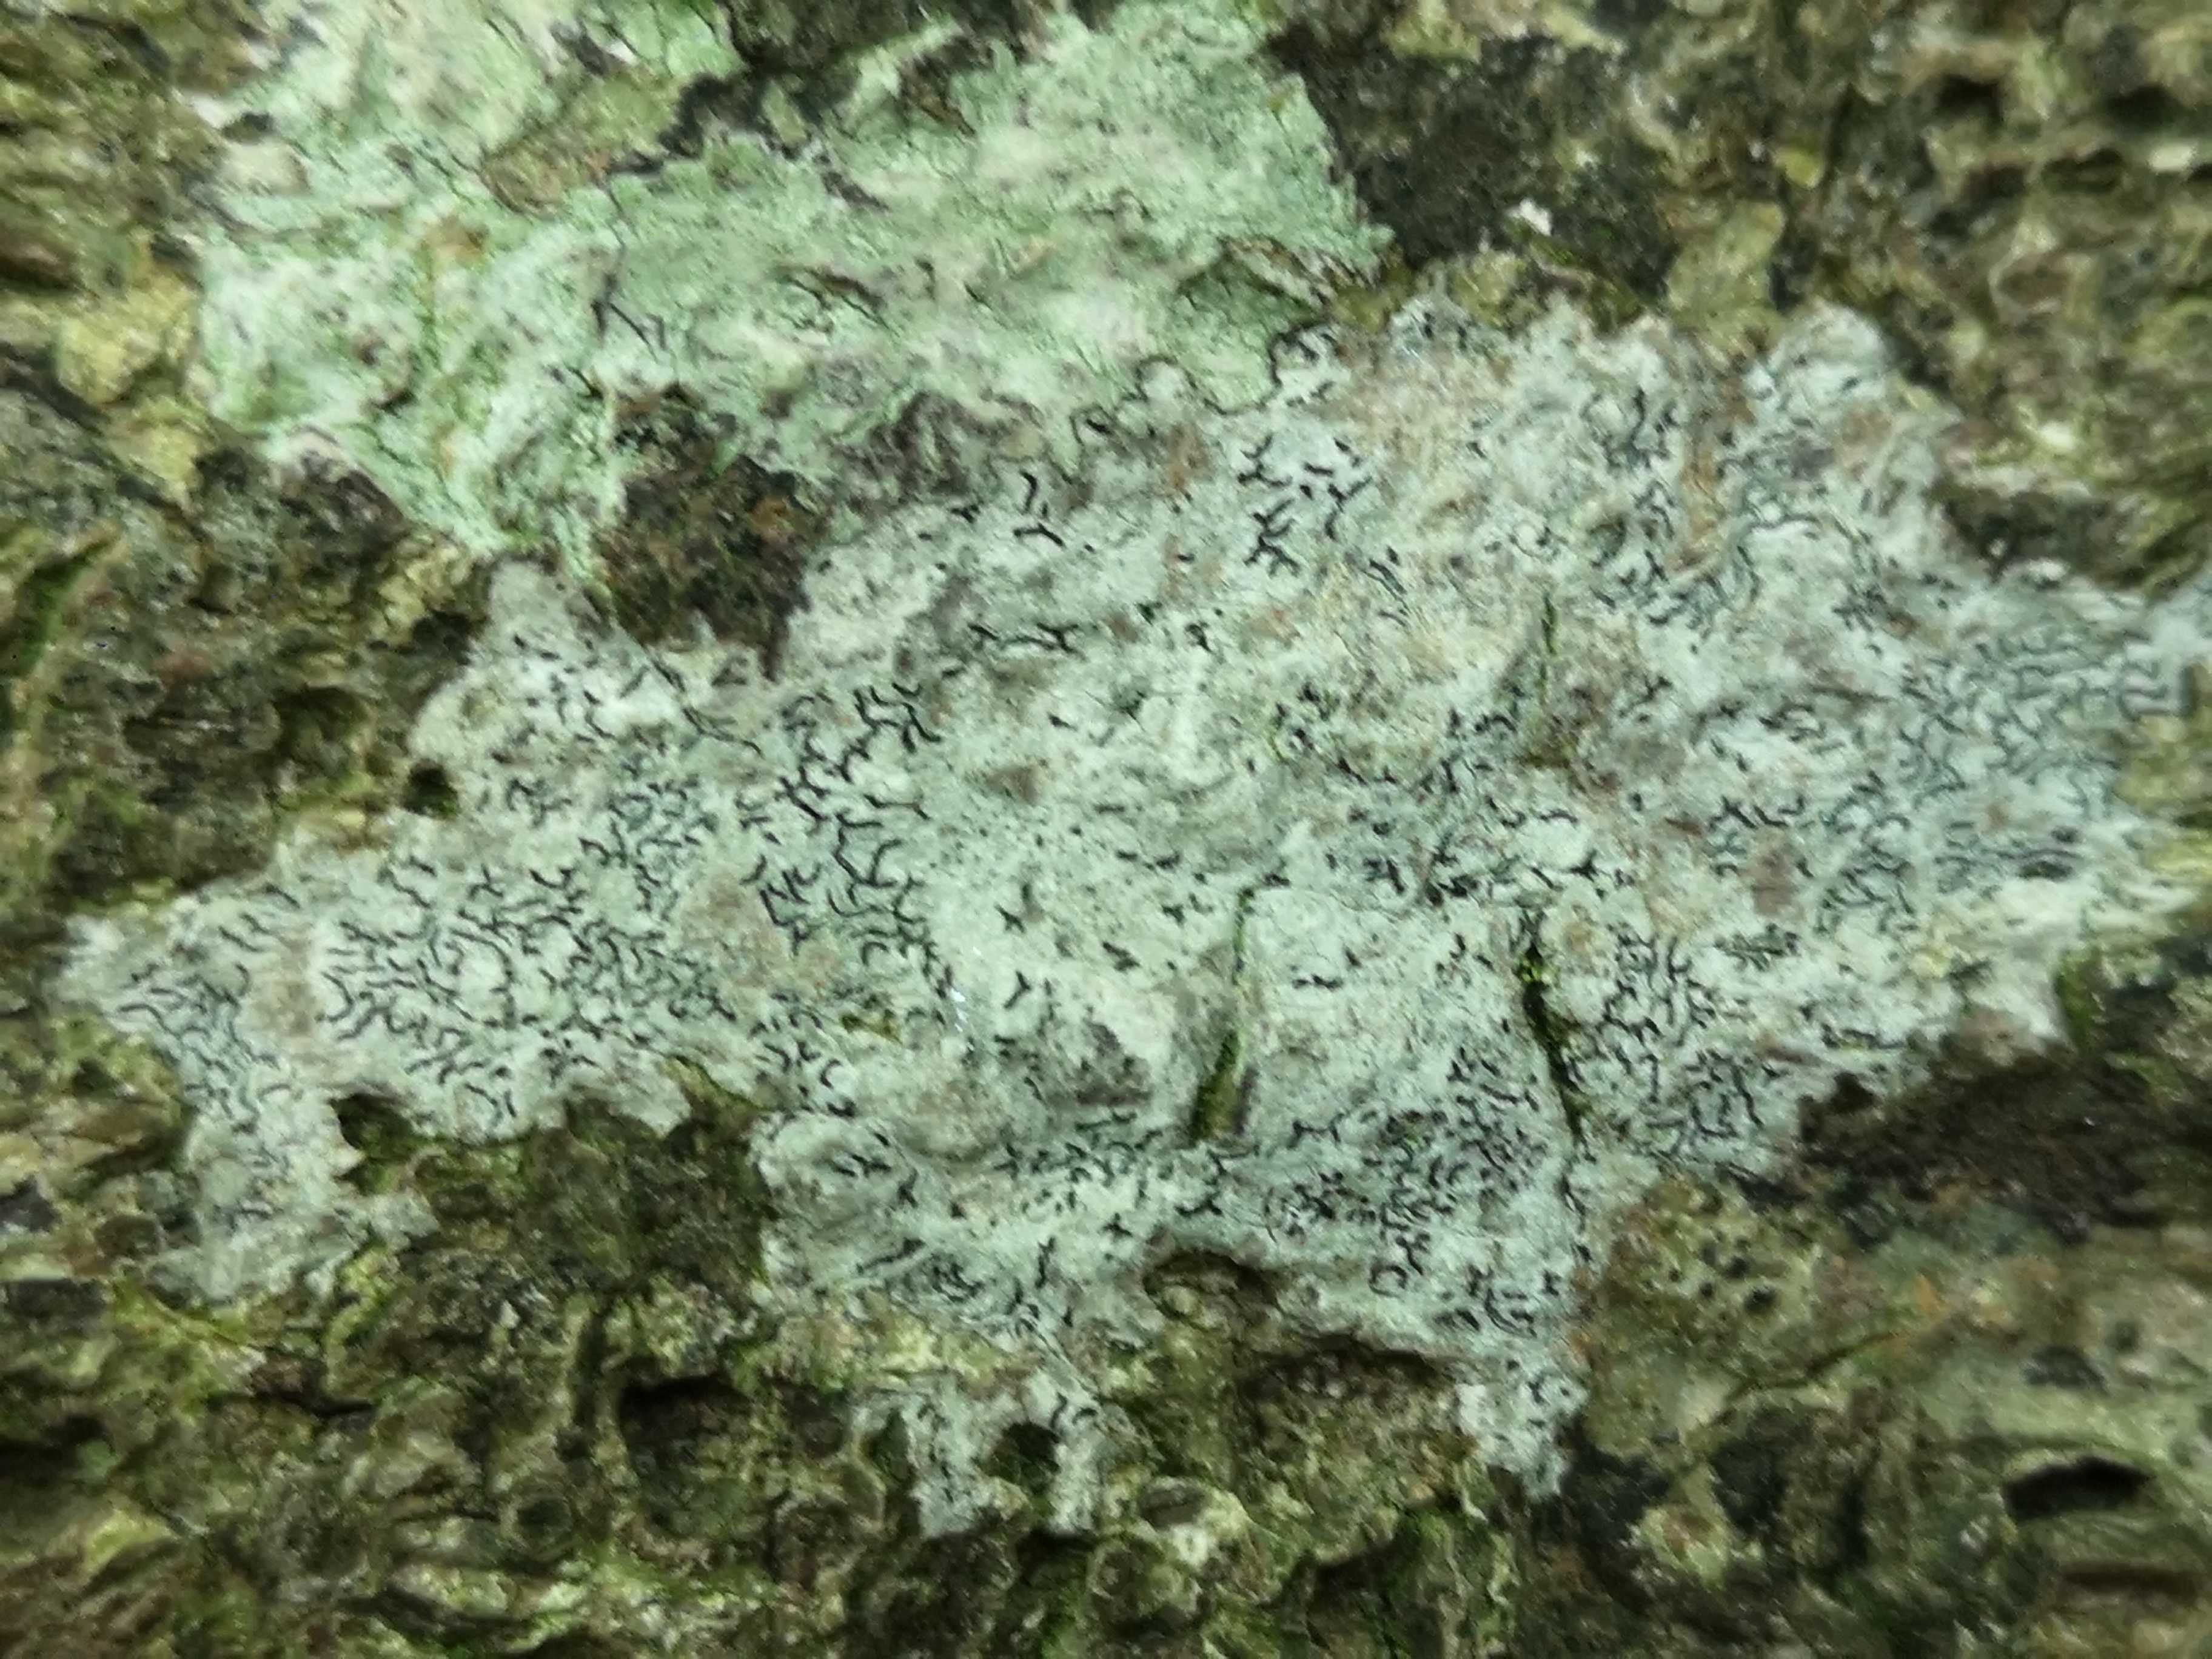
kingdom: Fungi
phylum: Ascomycota
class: Lecanoromycetes
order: Ostropales
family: Graphidaceae
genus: Graphis
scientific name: Graphis scripta
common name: almindelig skriftlav
